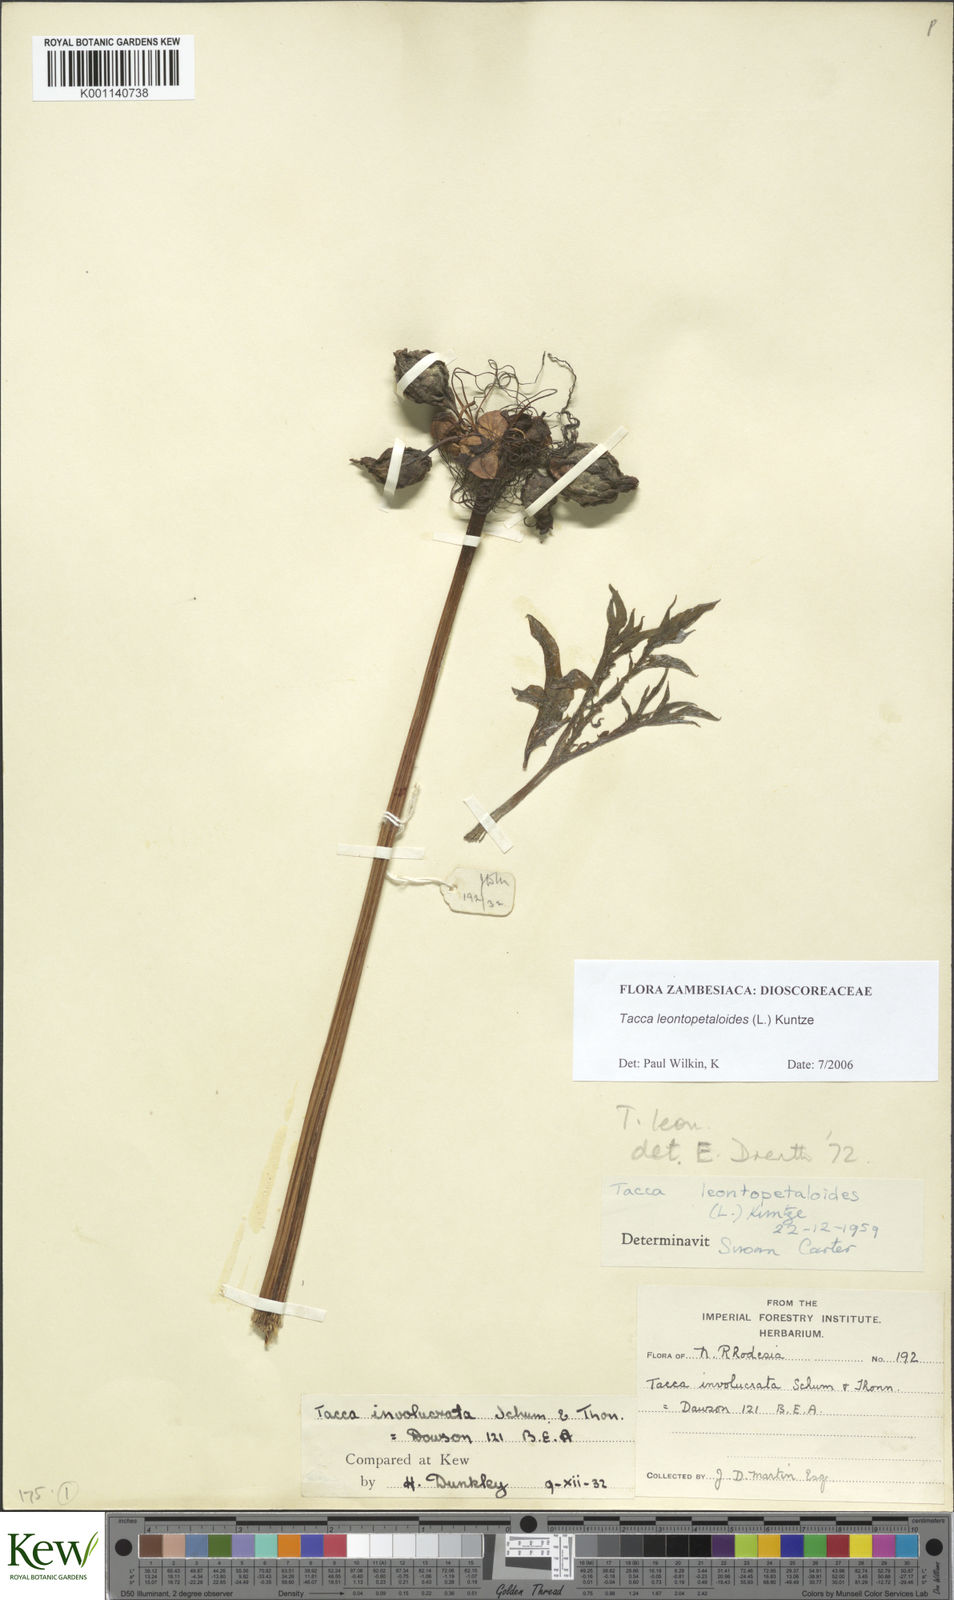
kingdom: Plantae
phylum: Tracheophyta
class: Liliopsida
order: Dioscoreales
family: Dioscoreaceae
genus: Tacca
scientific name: Tacca leontopetaloides
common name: Arrowroot
